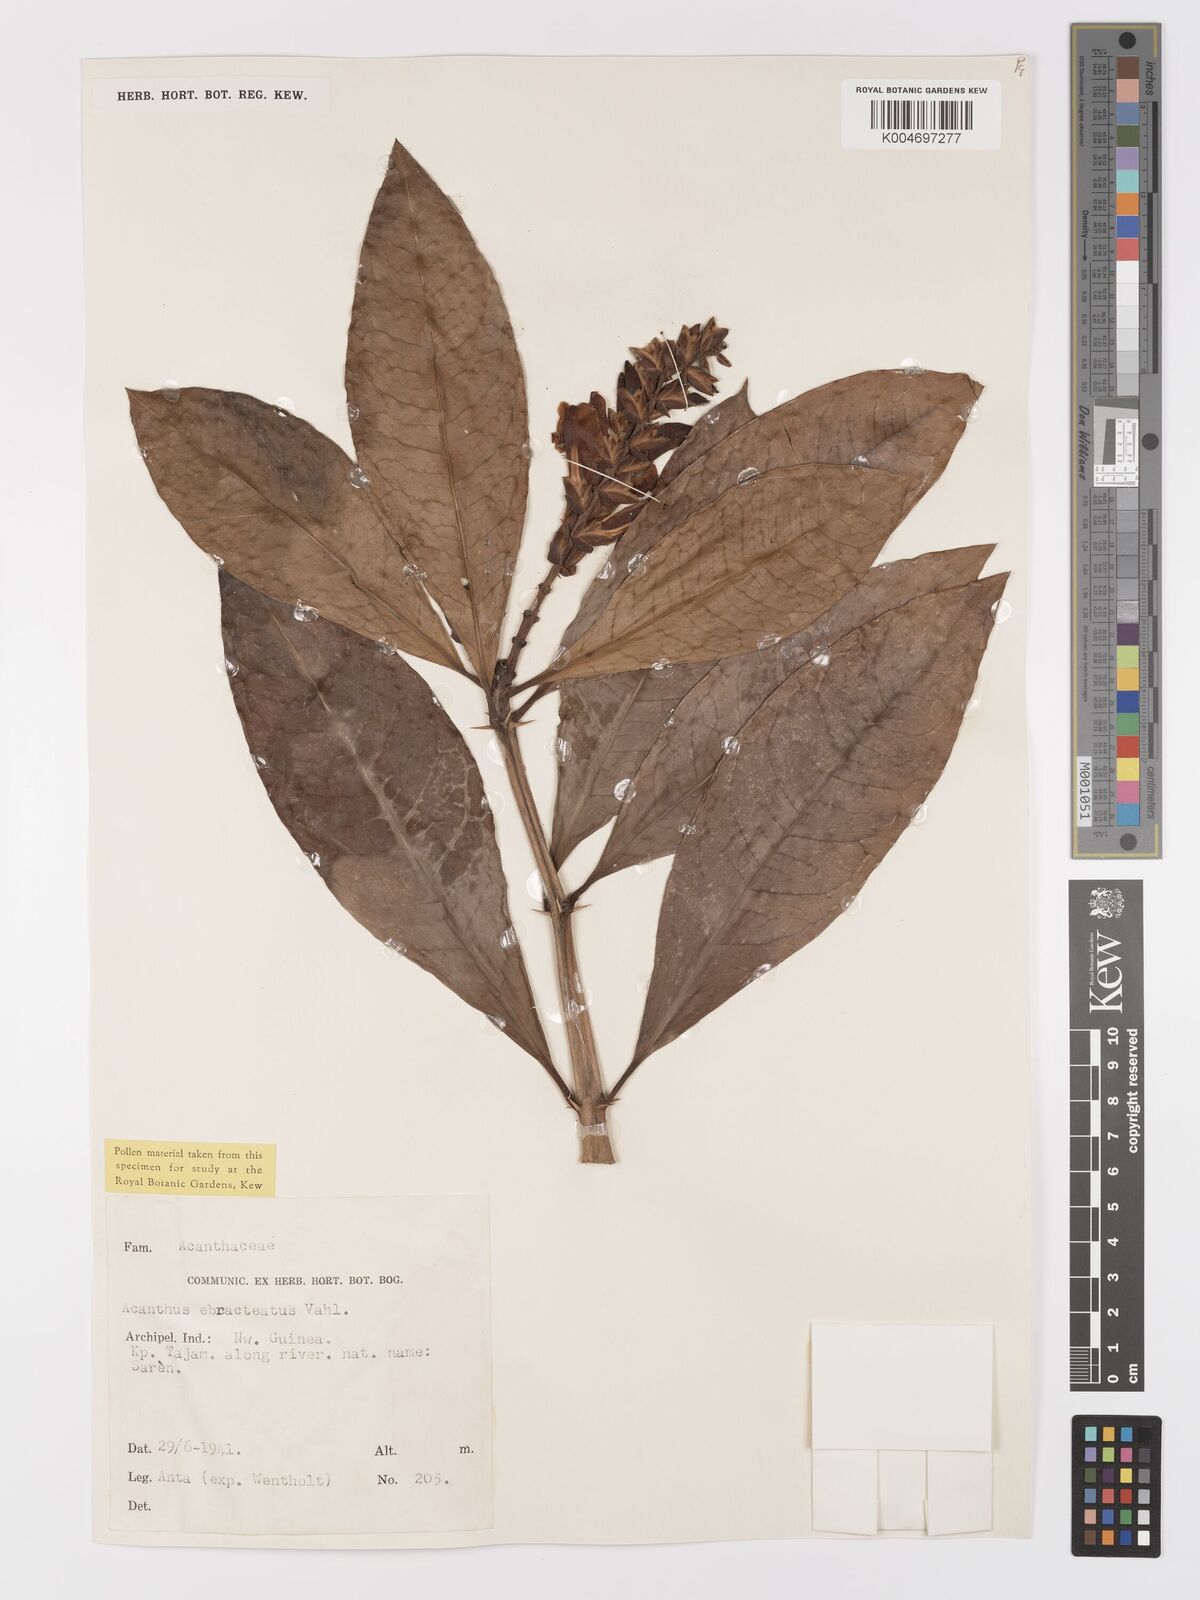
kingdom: Plantae
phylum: Tracheophyta
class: Magnoliopsida
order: Lamiales
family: Acanthaceae
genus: Acanthus
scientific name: Acanthus ebracteatus
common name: Acanthus
